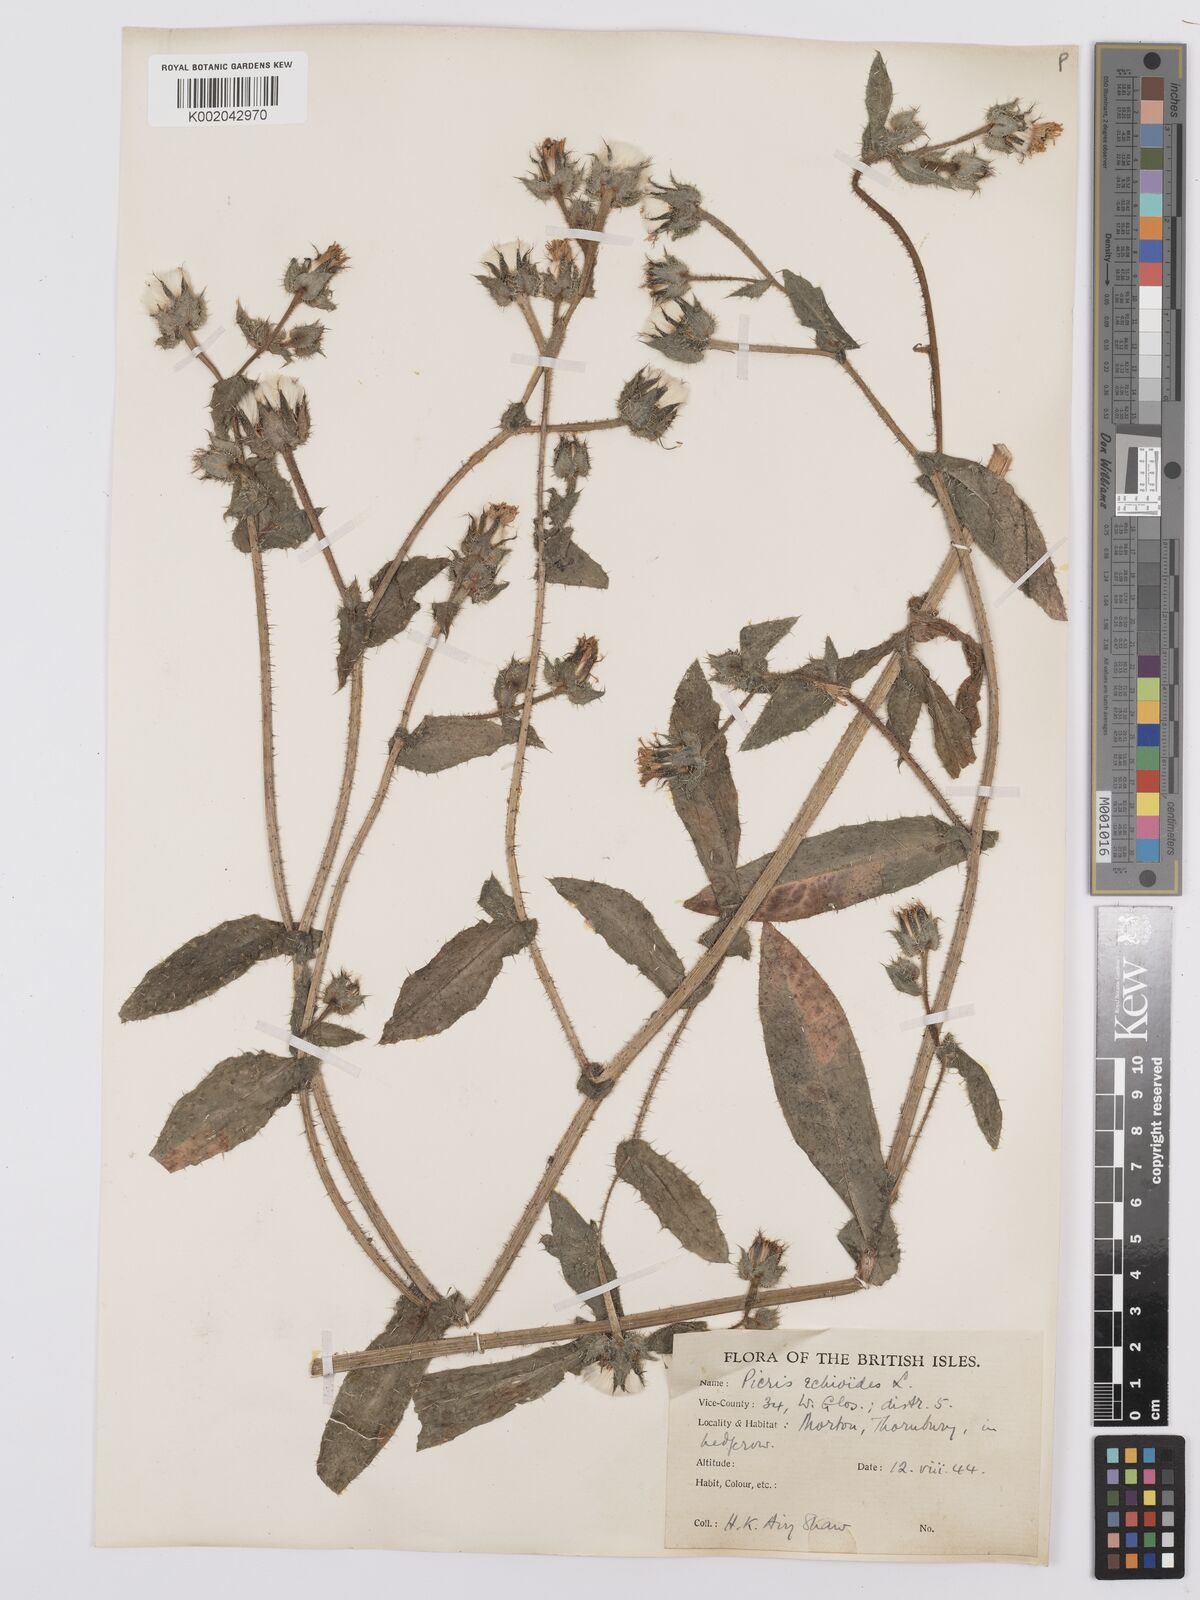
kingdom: Plantae
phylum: Tracheophyta
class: Magnoliopsida
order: Asterales
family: Asteraceae
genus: Helminthotheca
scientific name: Helminthotheca echioides
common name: Ox-tongue
